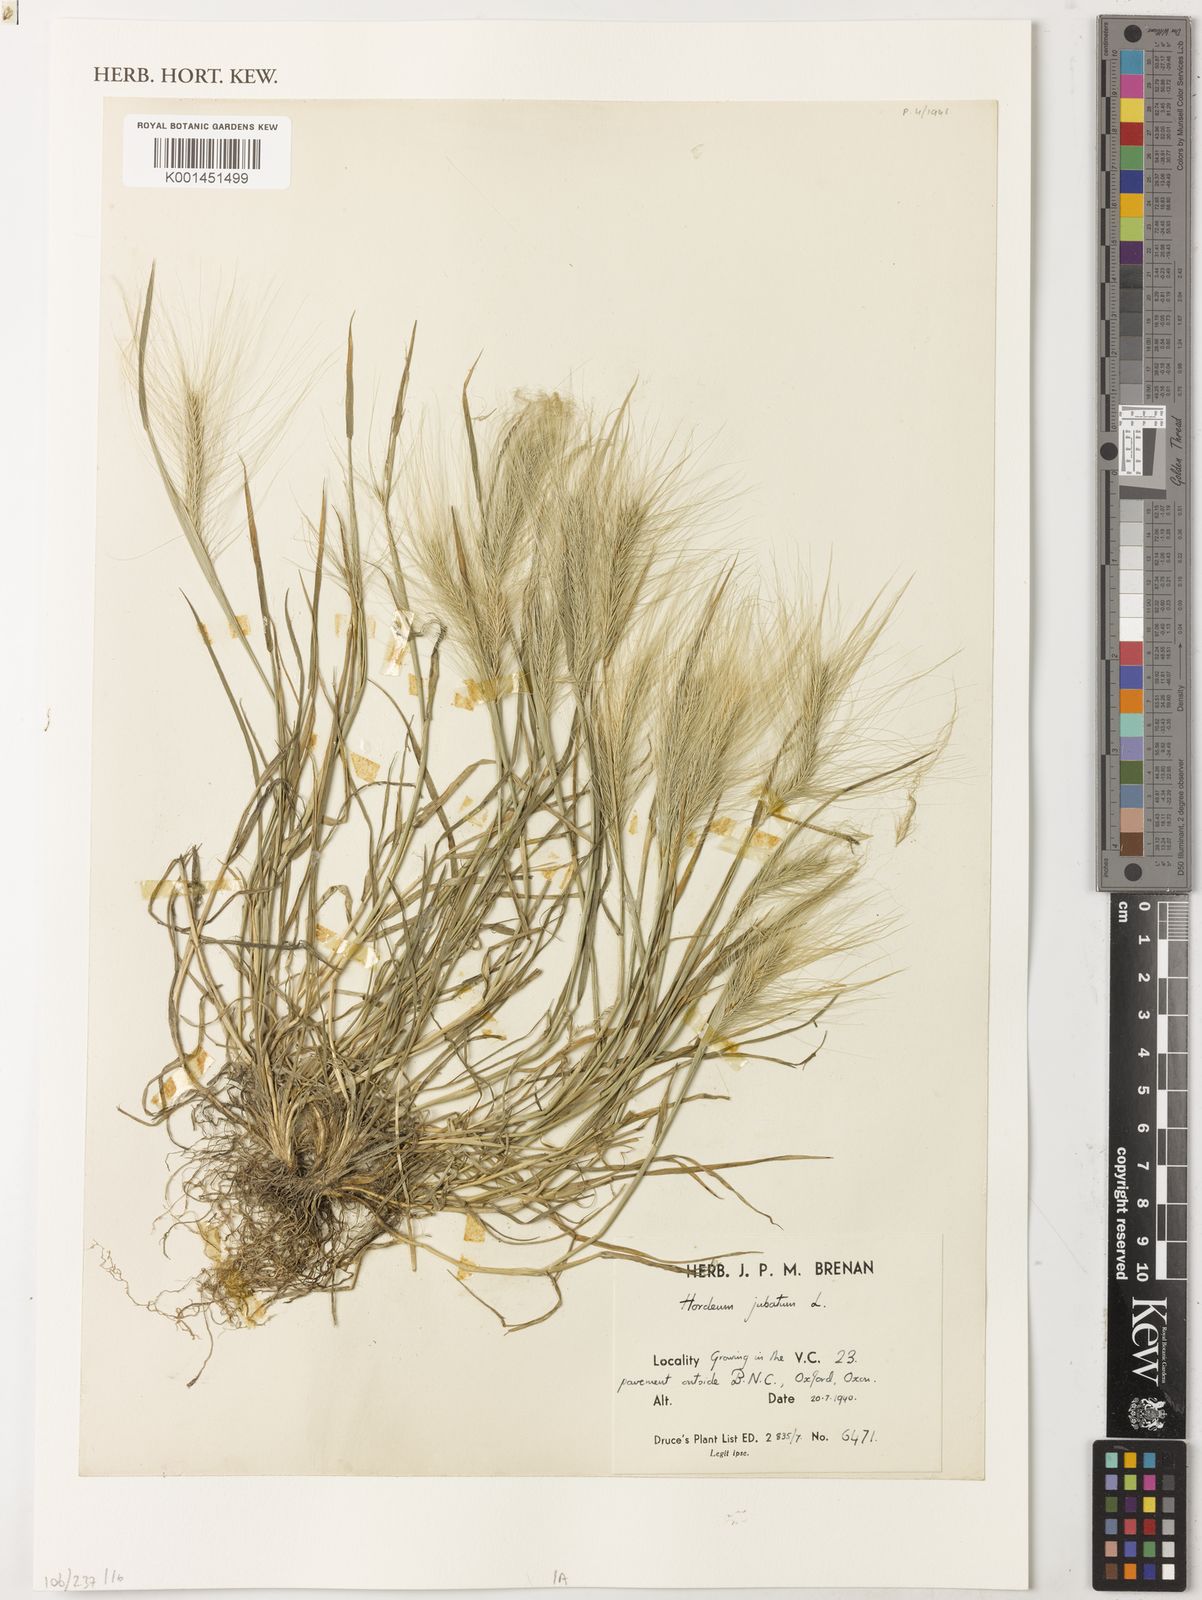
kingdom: Plantae
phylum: Tracheophyta
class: Liliopsida
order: Poales
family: Poaceae
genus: Hordeum
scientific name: Hordeum jubatum
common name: Foxtail barley
